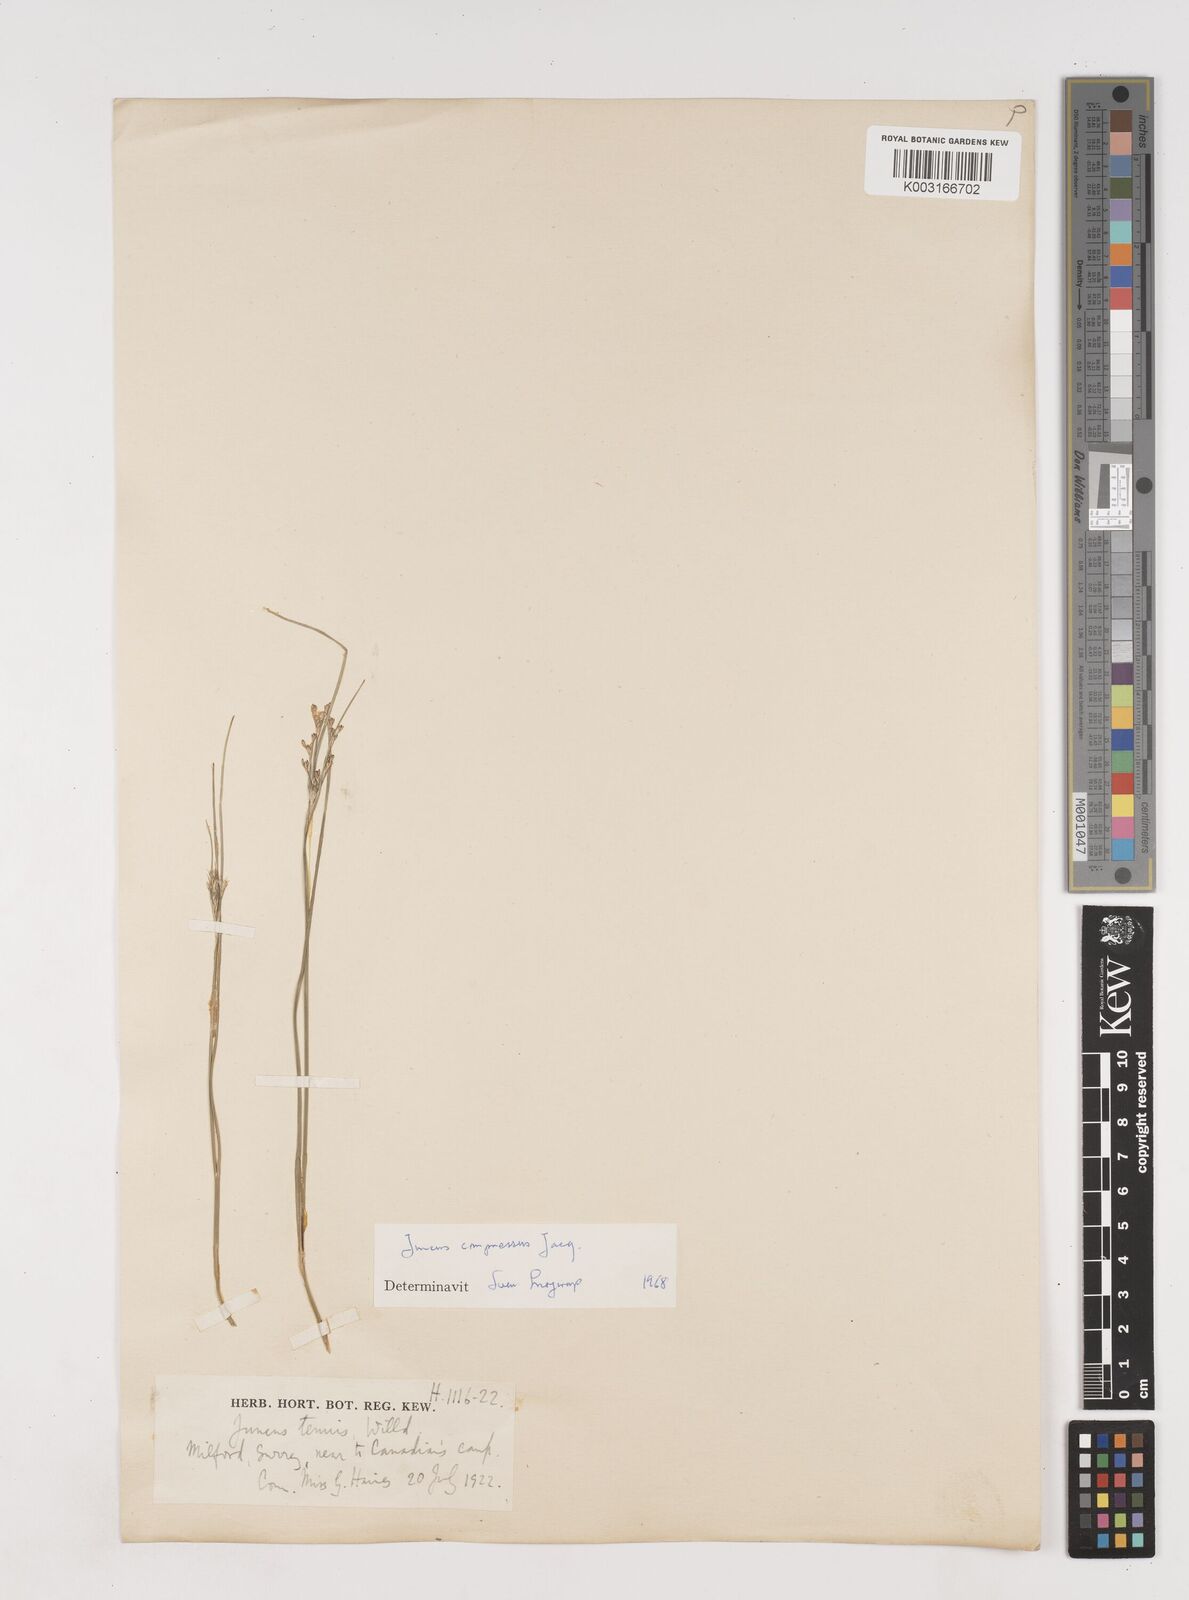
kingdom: Plantae
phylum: Tracheophyta
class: Liliopsida
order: Poales
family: Juncaceae
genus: Juncus
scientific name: Juncus compressus
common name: Round-fruited rush
